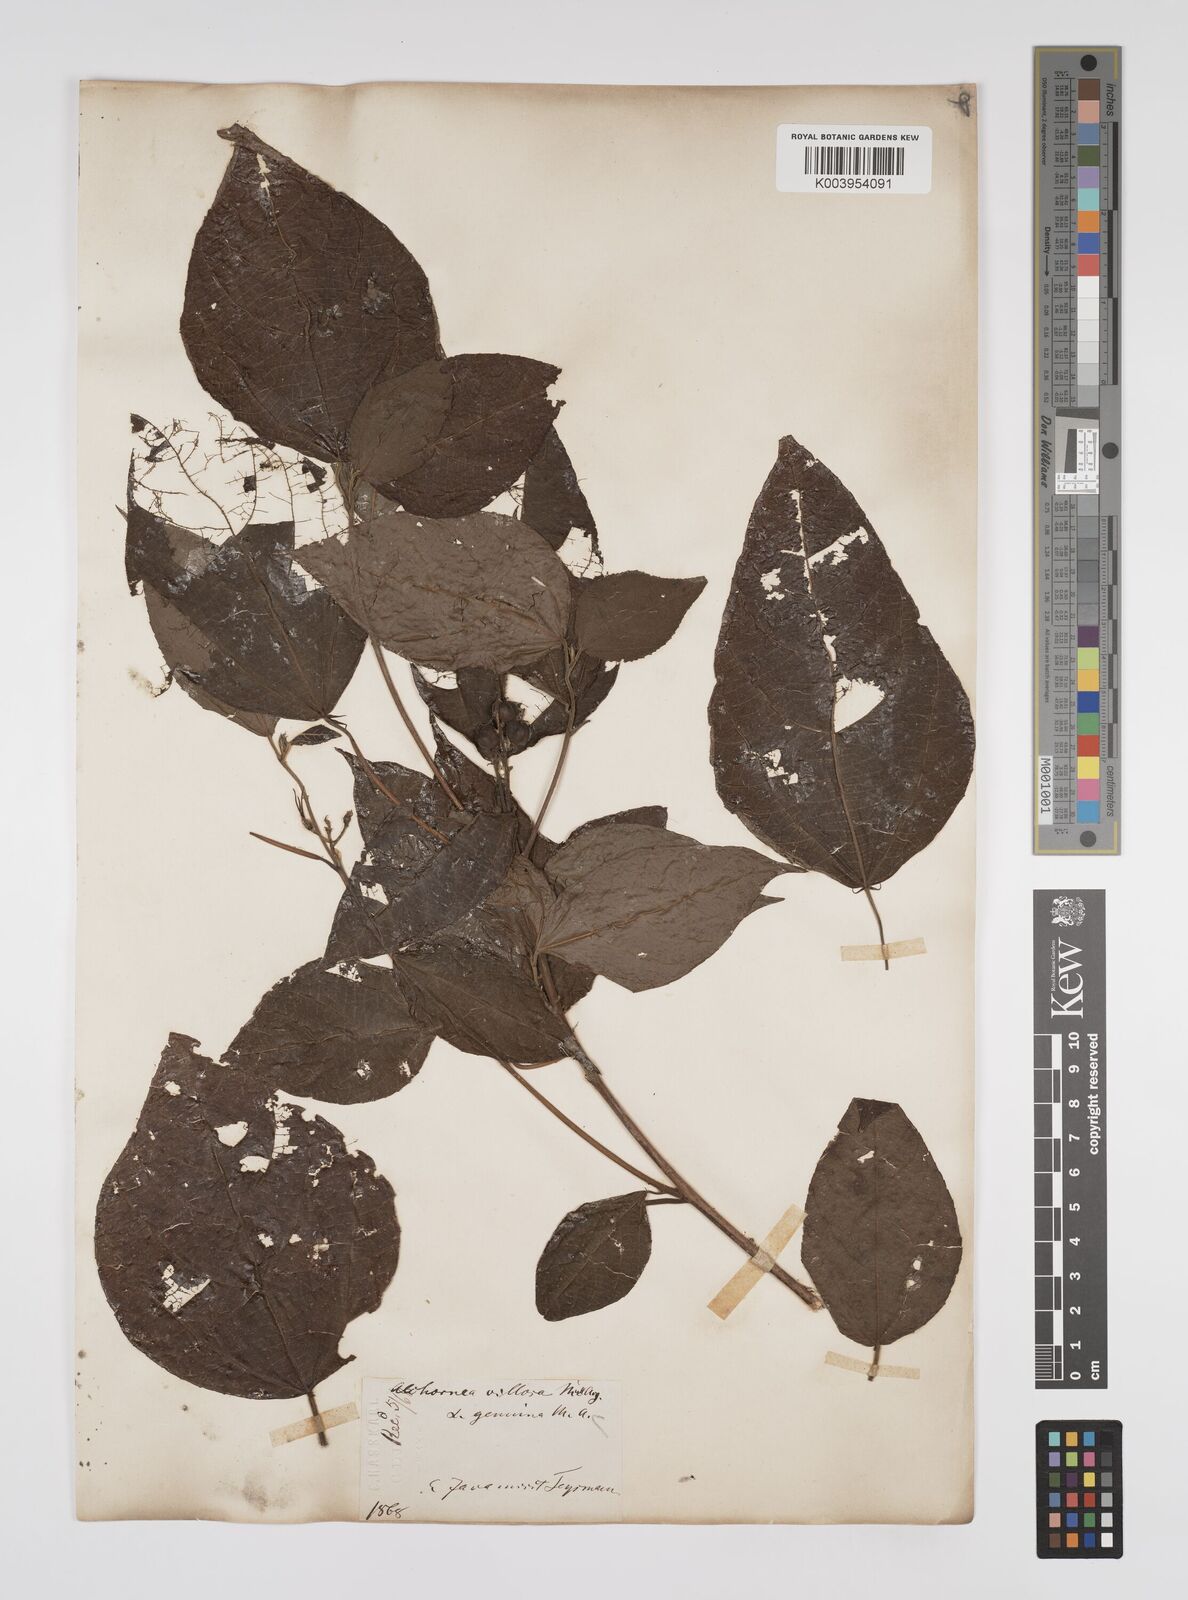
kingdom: Plantae
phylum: Tracheophyta
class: Magnoliopsida
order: Malpighiales
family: Euphorbiaceae
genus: Alchornea
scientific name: Alchornea tiliifolia
